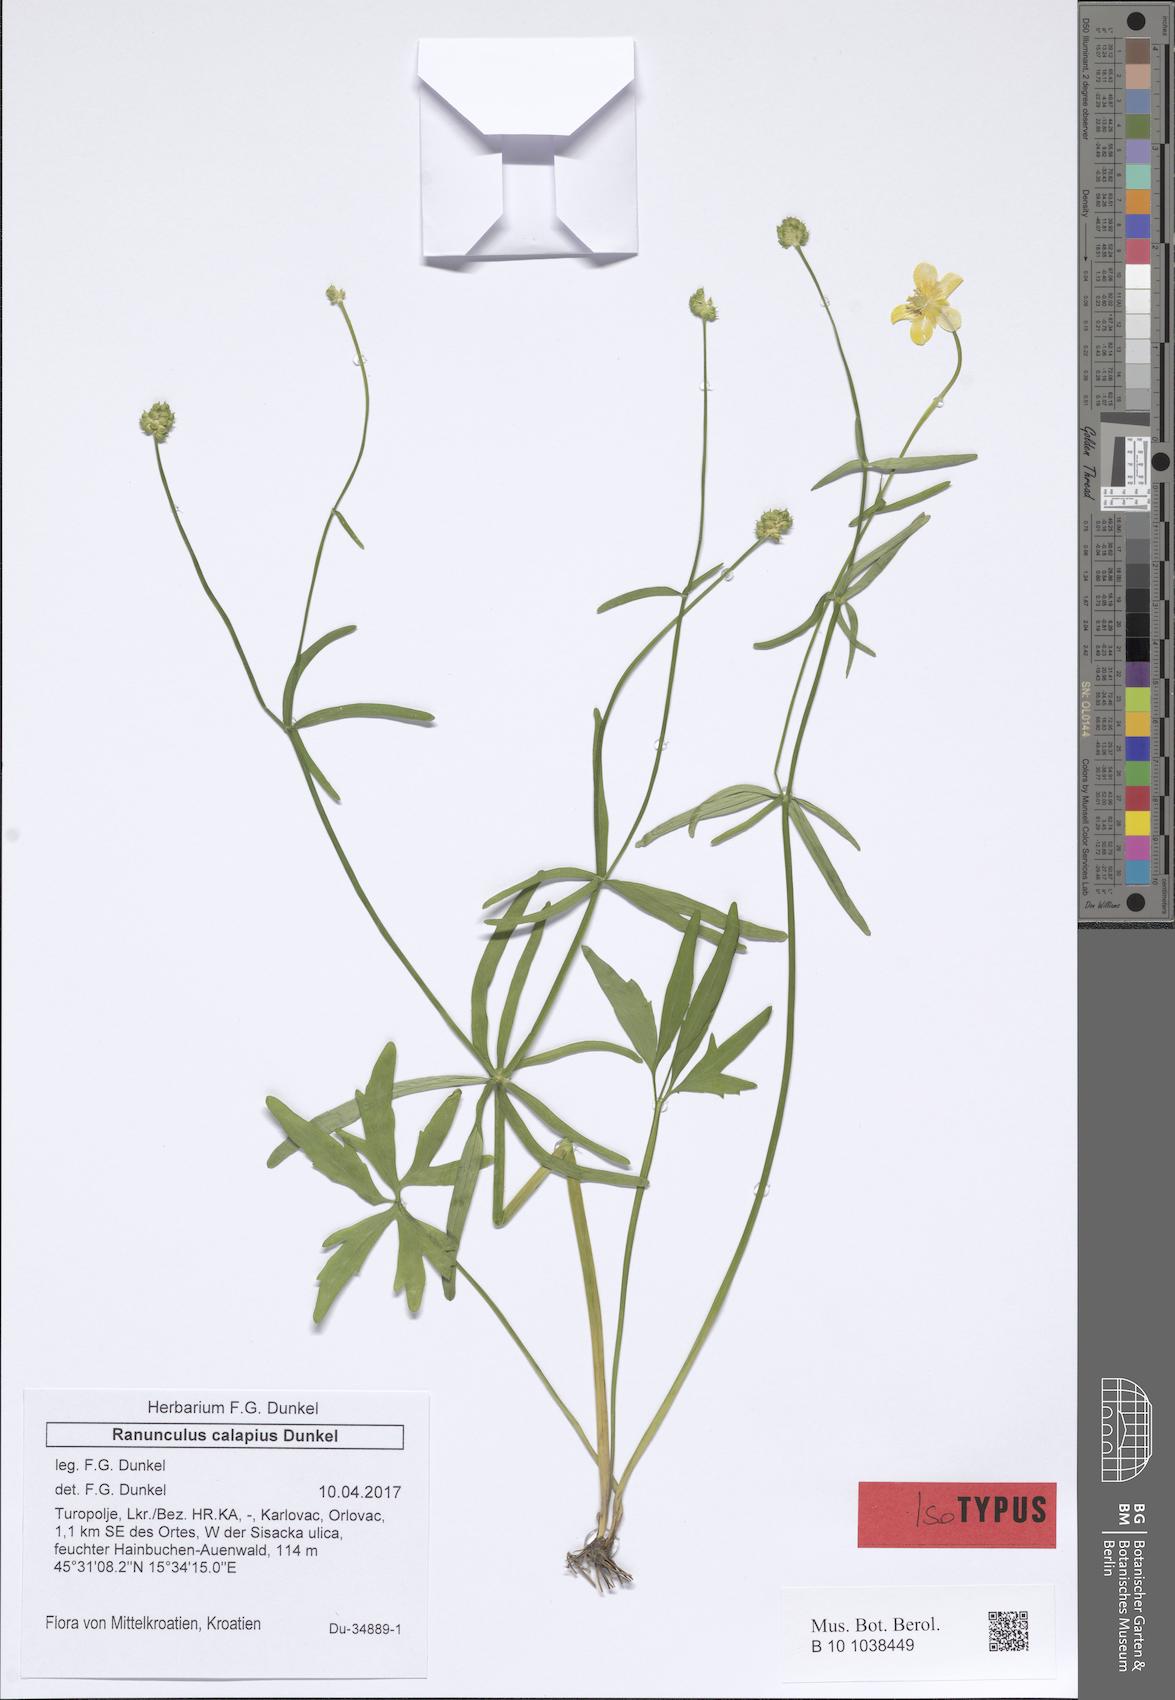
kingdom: Plantae
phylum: Tracheophyta
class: Magnoliopsida
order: Ranunculales
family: Ranunculaceae
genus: Ranunculus
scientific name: Ranunculus notabilis
